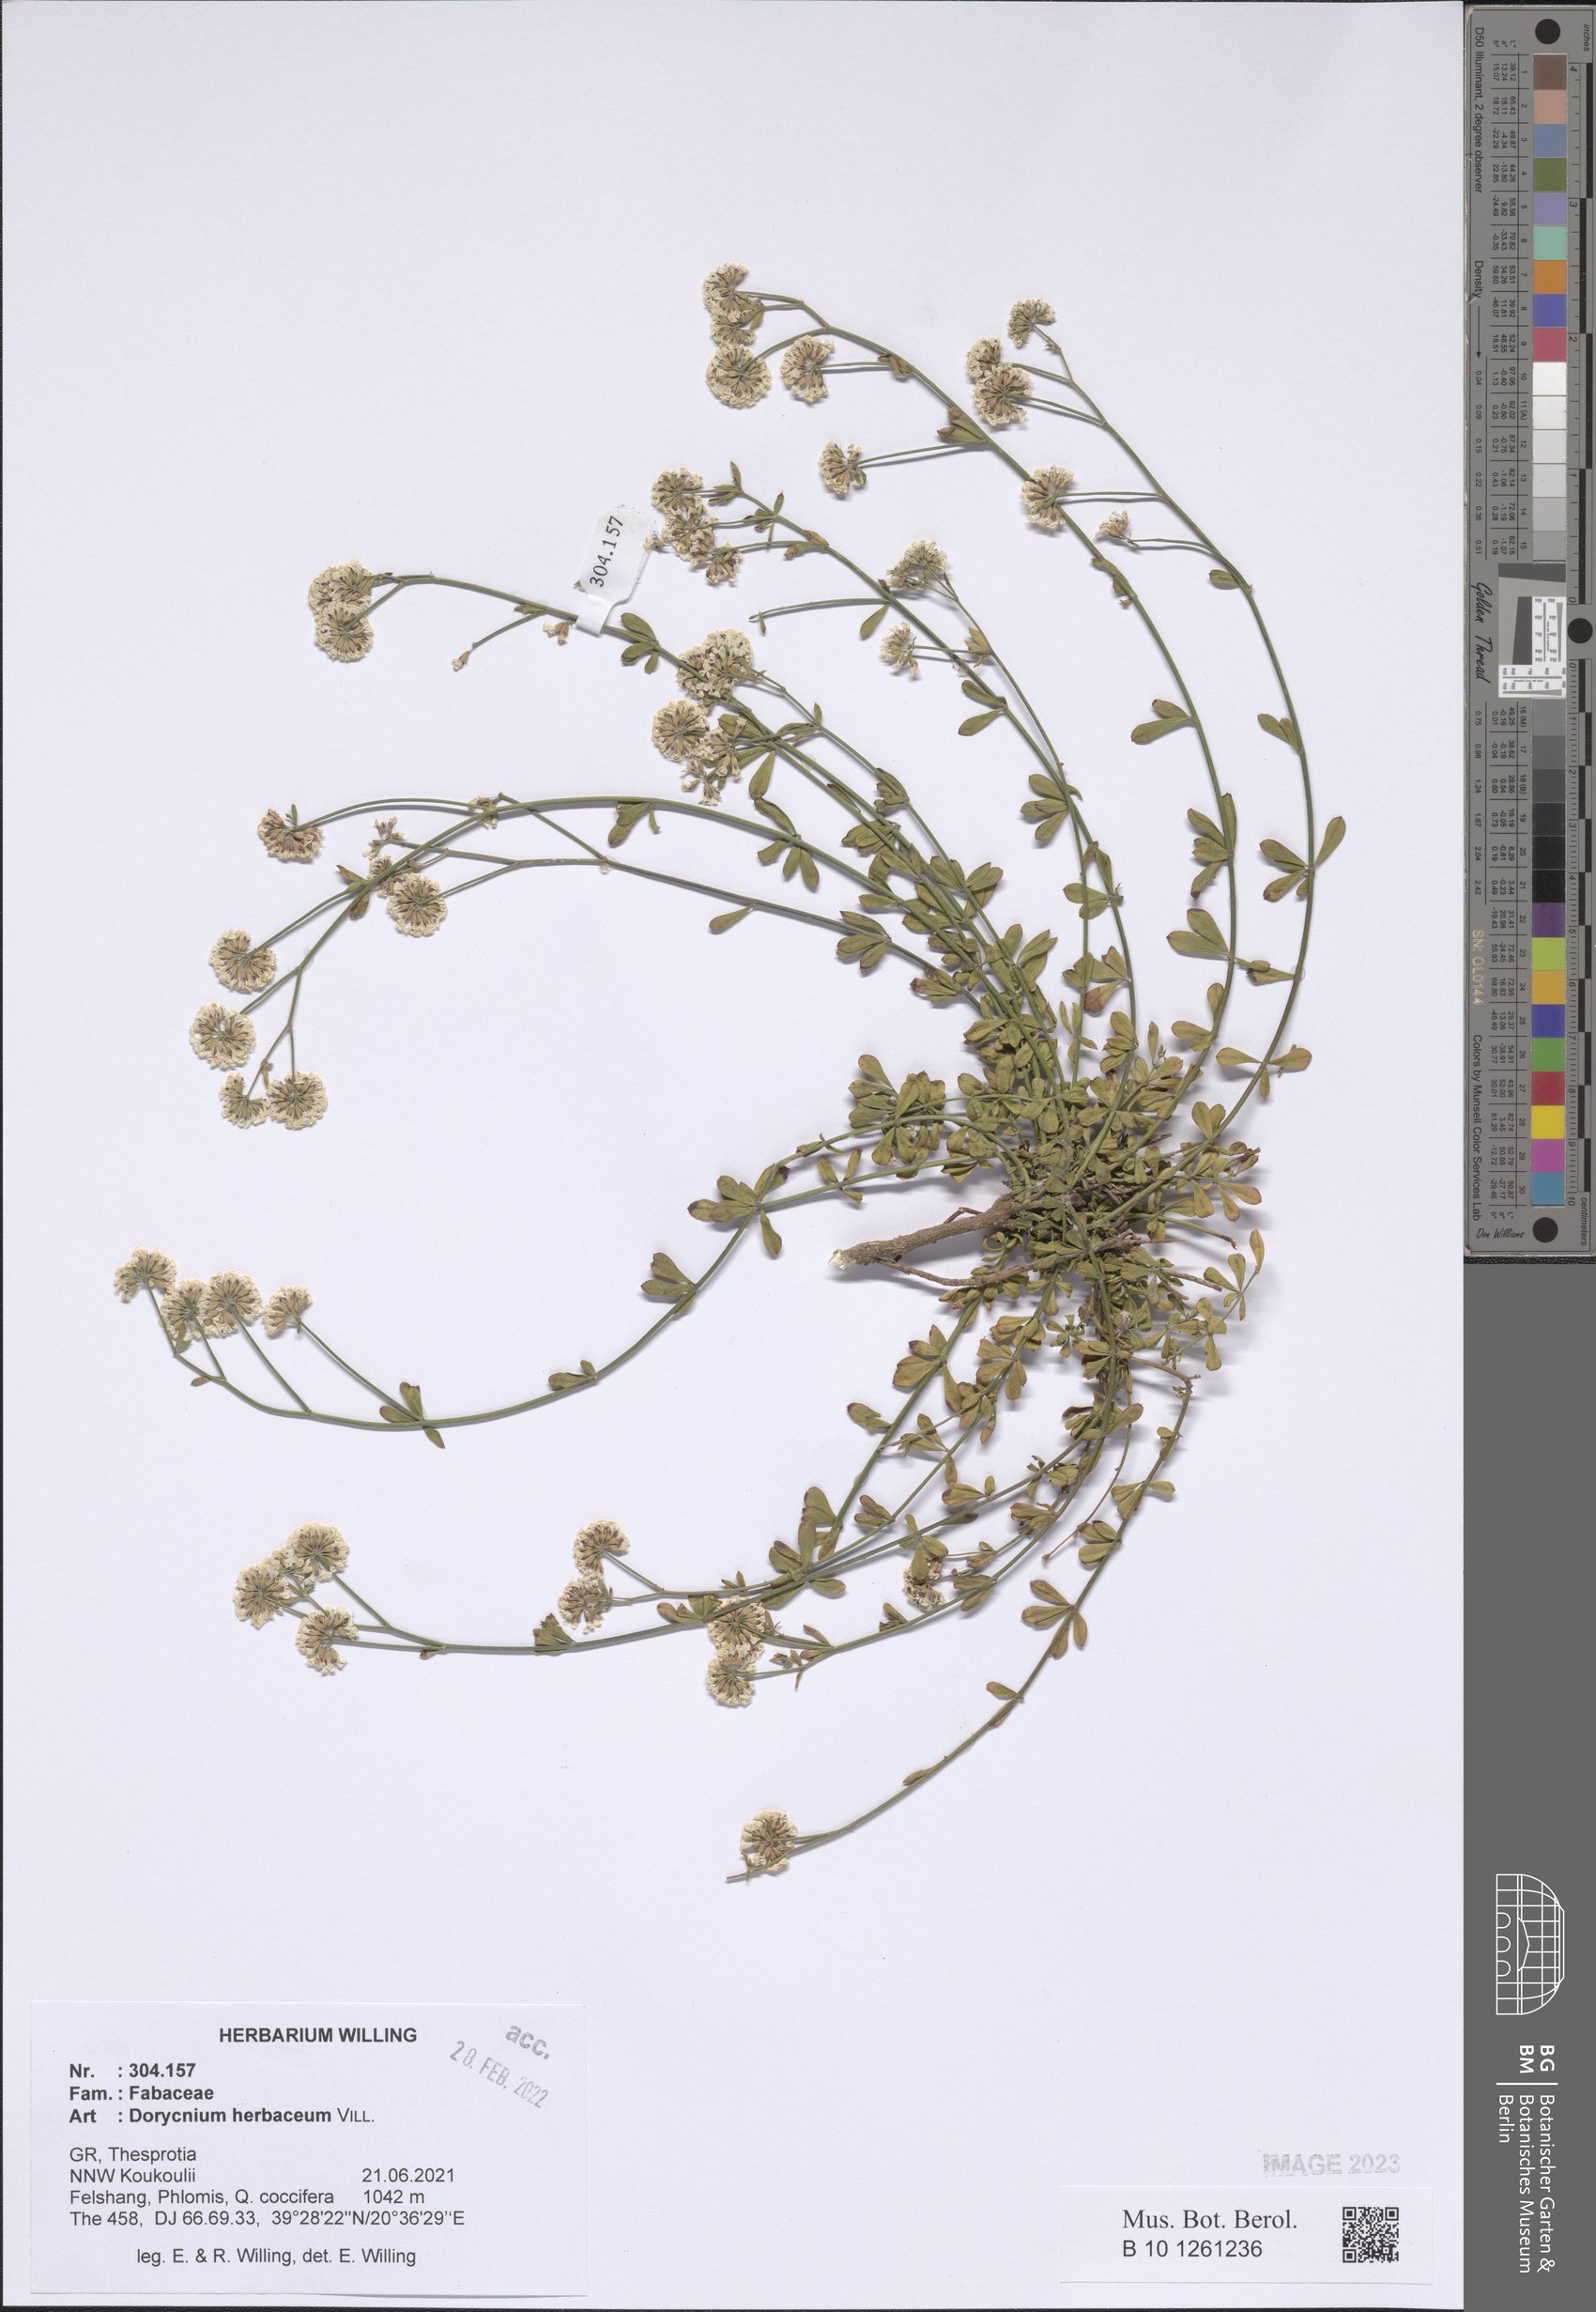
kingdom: Plantae
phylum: Tracheophyta
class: Magnoliopsida
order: Fabales
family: Fabaceae
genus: Lotus
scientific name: Lotus herbaceus
